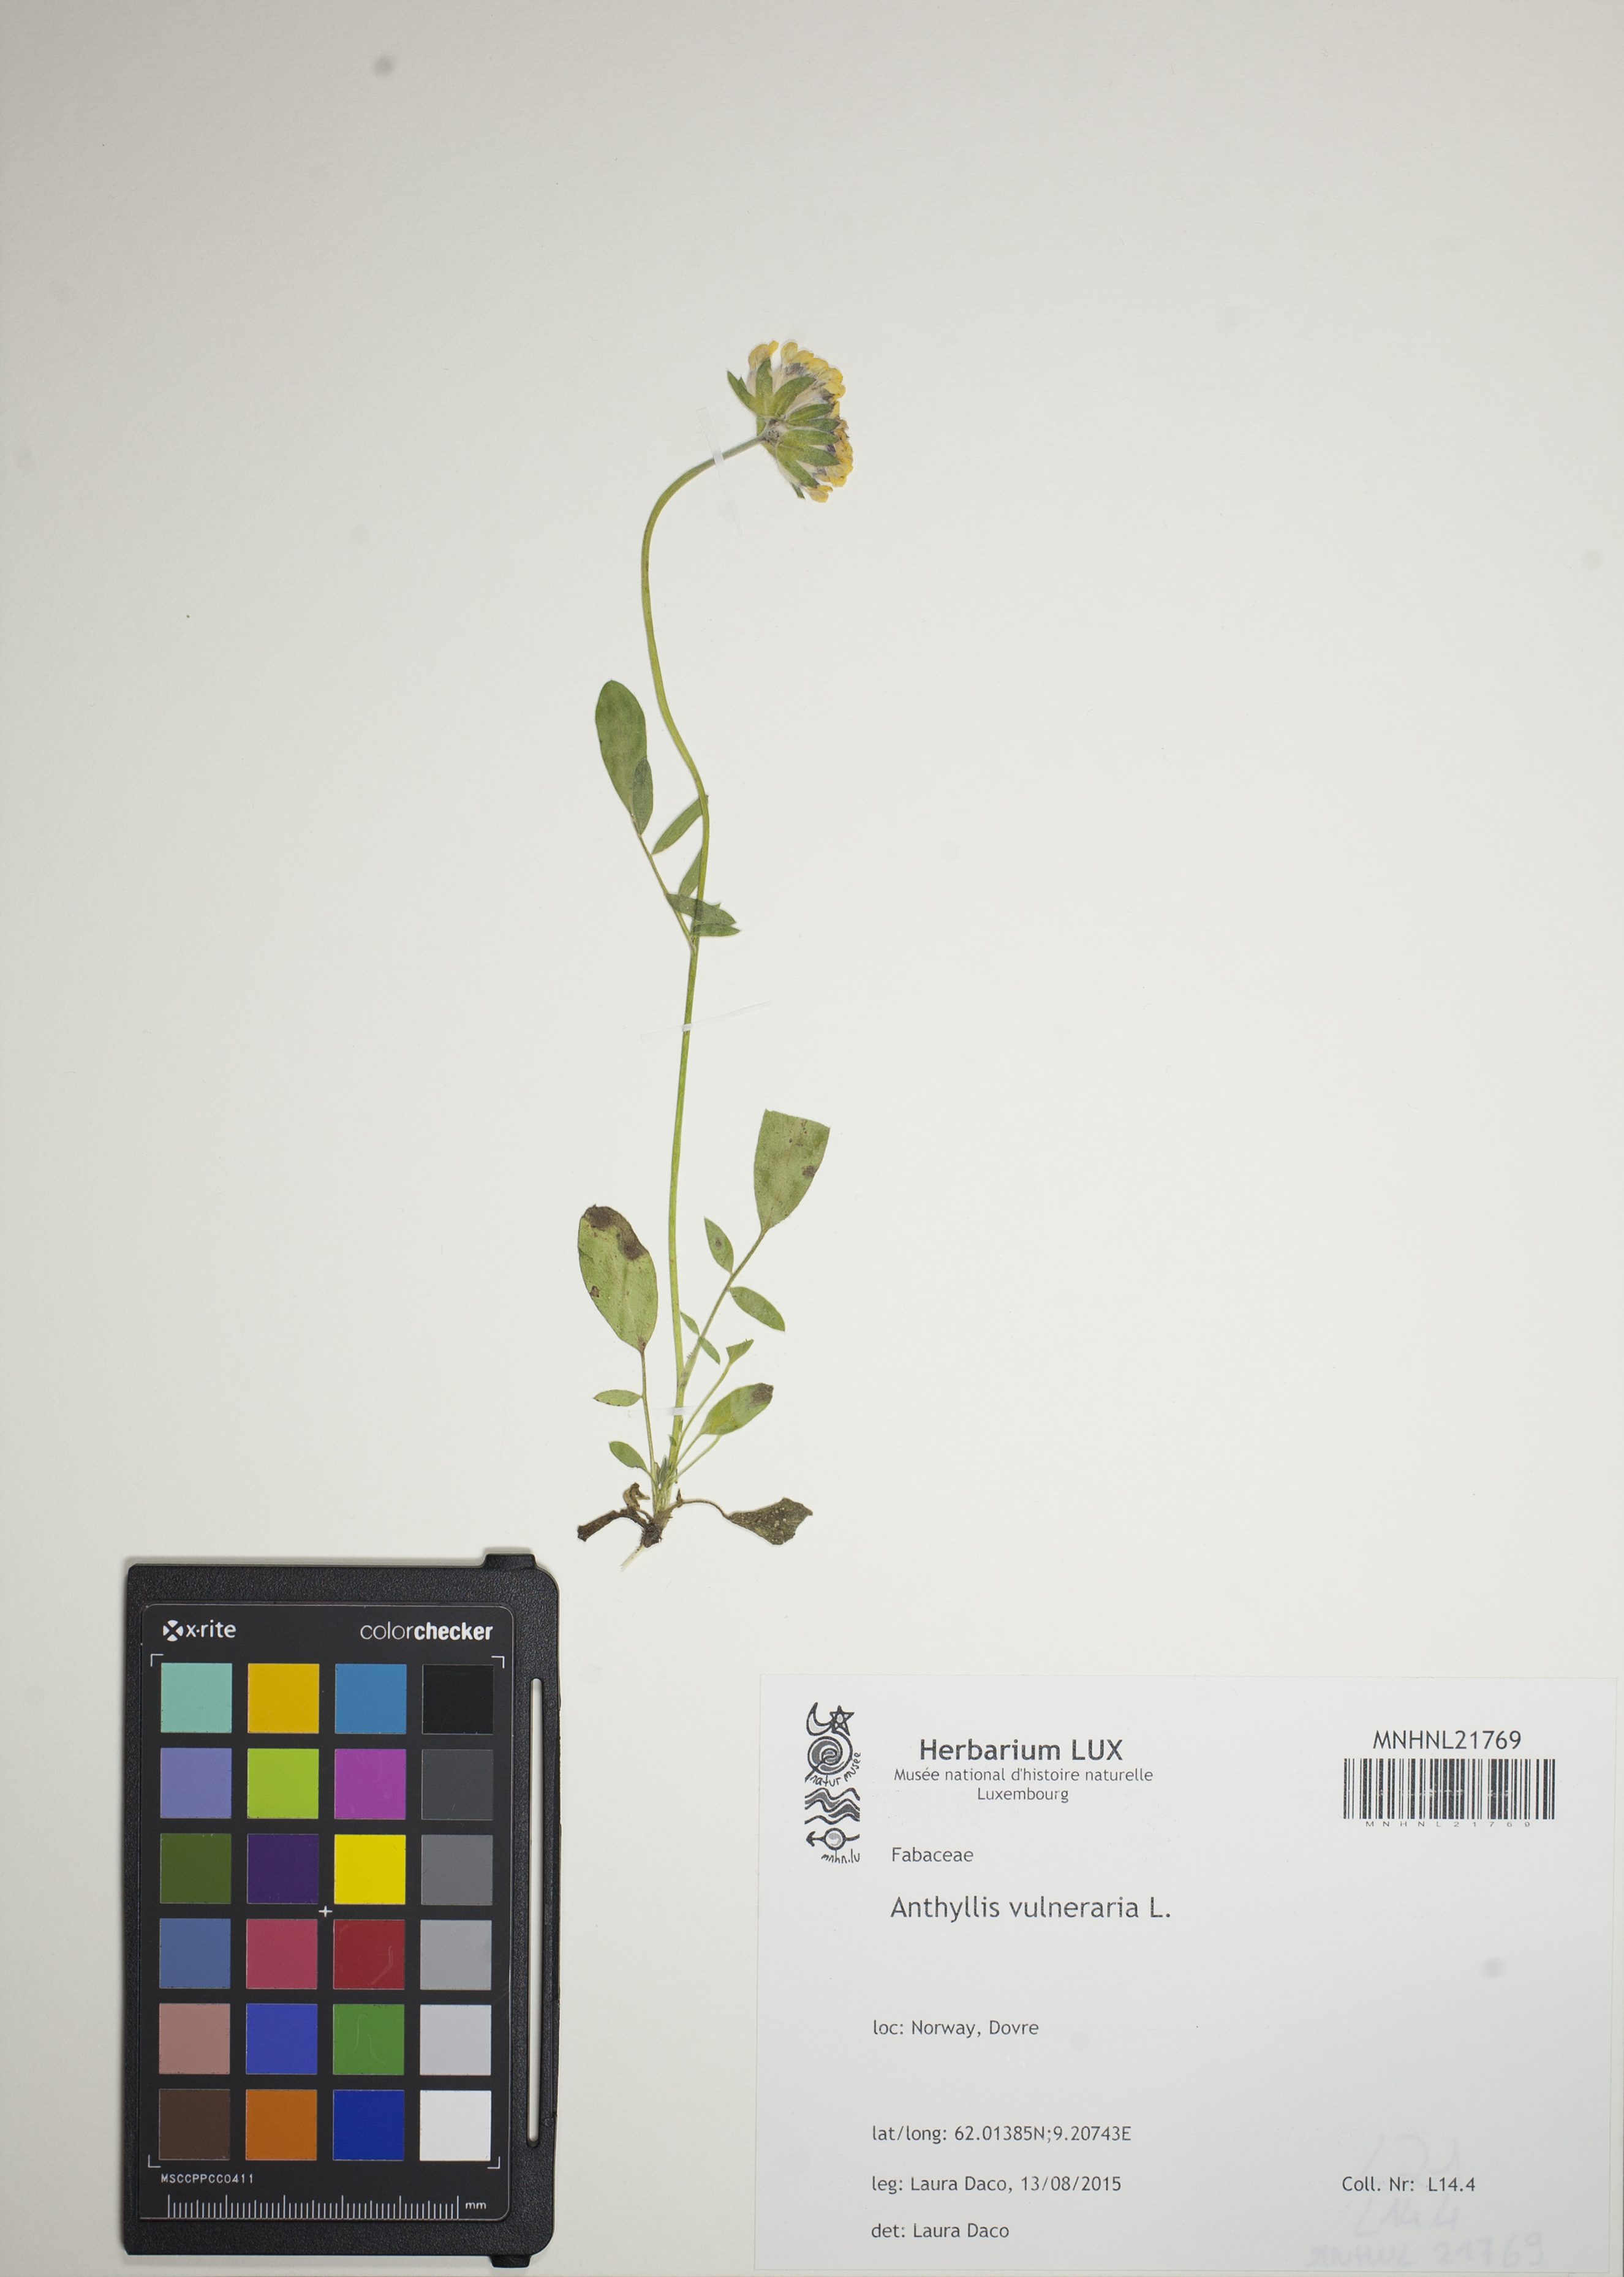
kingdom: Plantae
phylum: Tracheophyta
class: Magnoliopsida
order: Fabales
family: Fabaceae
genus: Anthyllis
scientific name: Anthyllis vulneraria
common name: Kidney vetch
